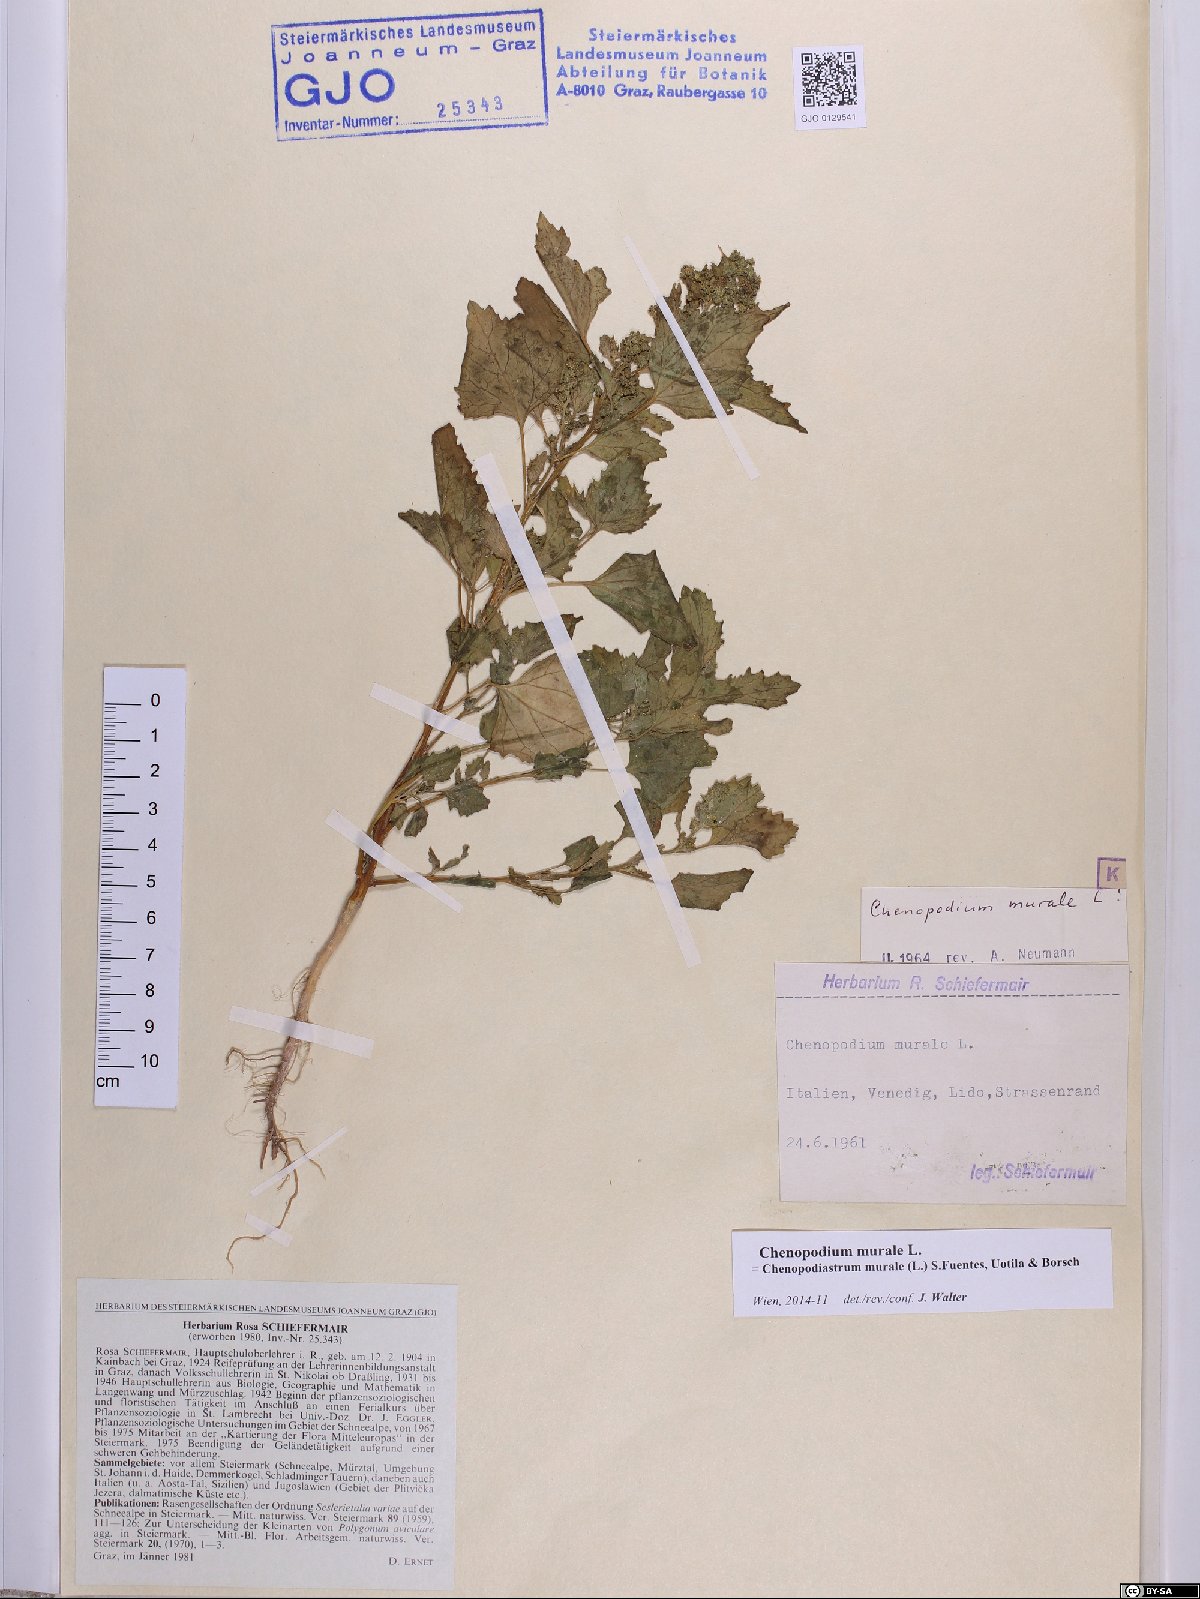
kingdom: Plantae
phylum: Tracheophyta
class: Magnoliopsida
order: Caryophyllales
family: Amaranthaceae
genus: Chenopodiastrum
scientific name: Chenopodiastrum murale
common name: Sowbane
